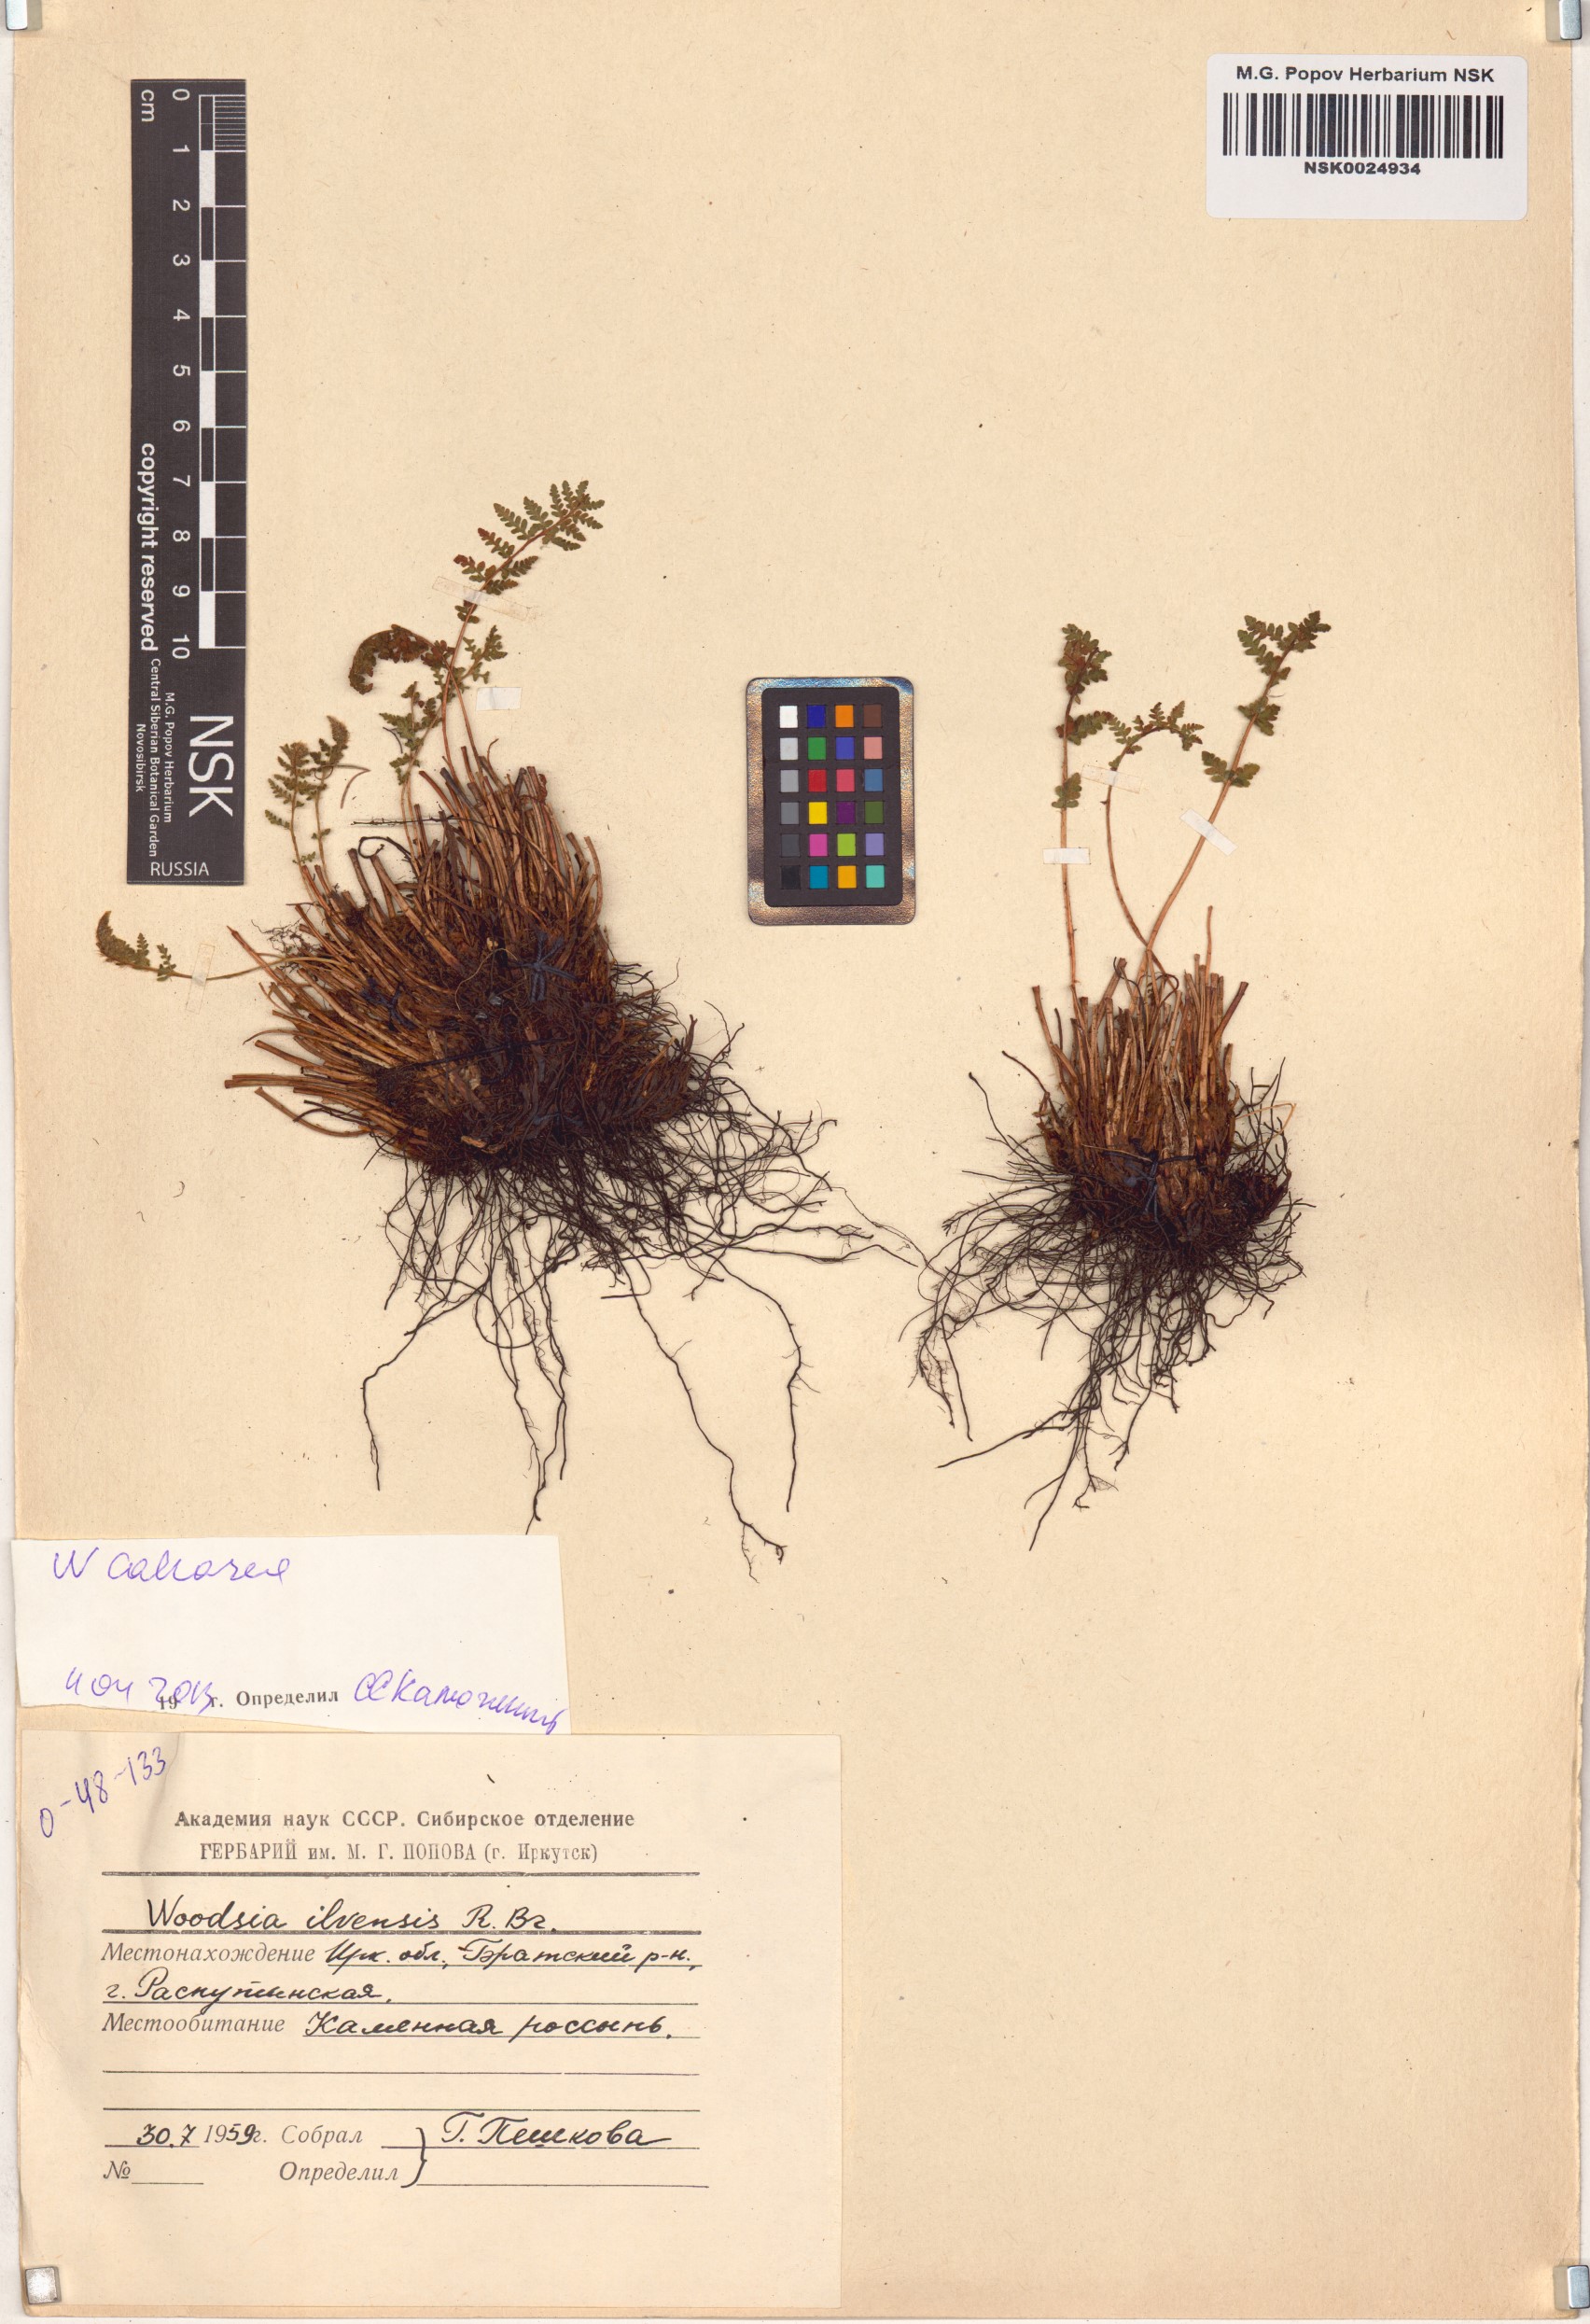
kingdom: Plantae
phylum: Tracheophyta
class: Polypodiopsida
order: Polypodiales
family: Woodsiaceae
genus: Woodsia
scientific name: Woodsia calcarea
